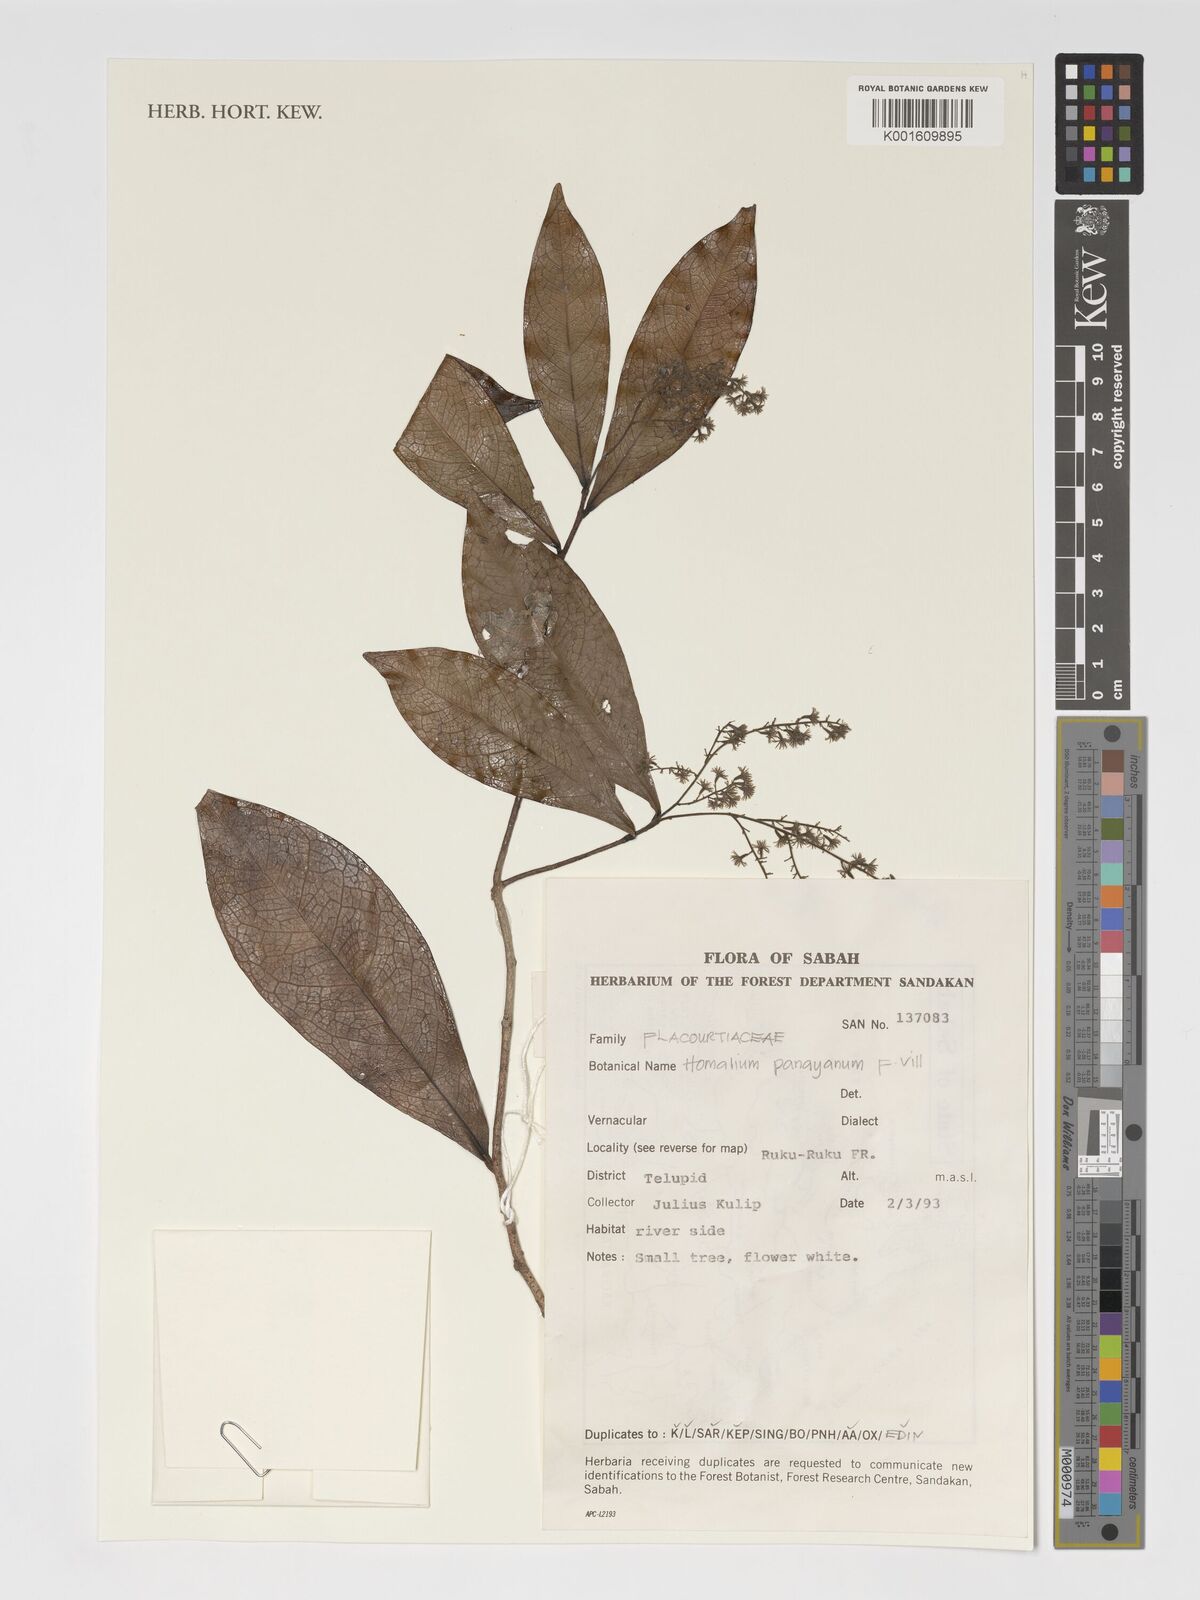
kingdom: Plantae
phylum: Tracheophyta
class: Magnoliopsida
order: Malpighiales
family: Salicaceae
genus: Homalium
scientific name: Homalium panayanum
